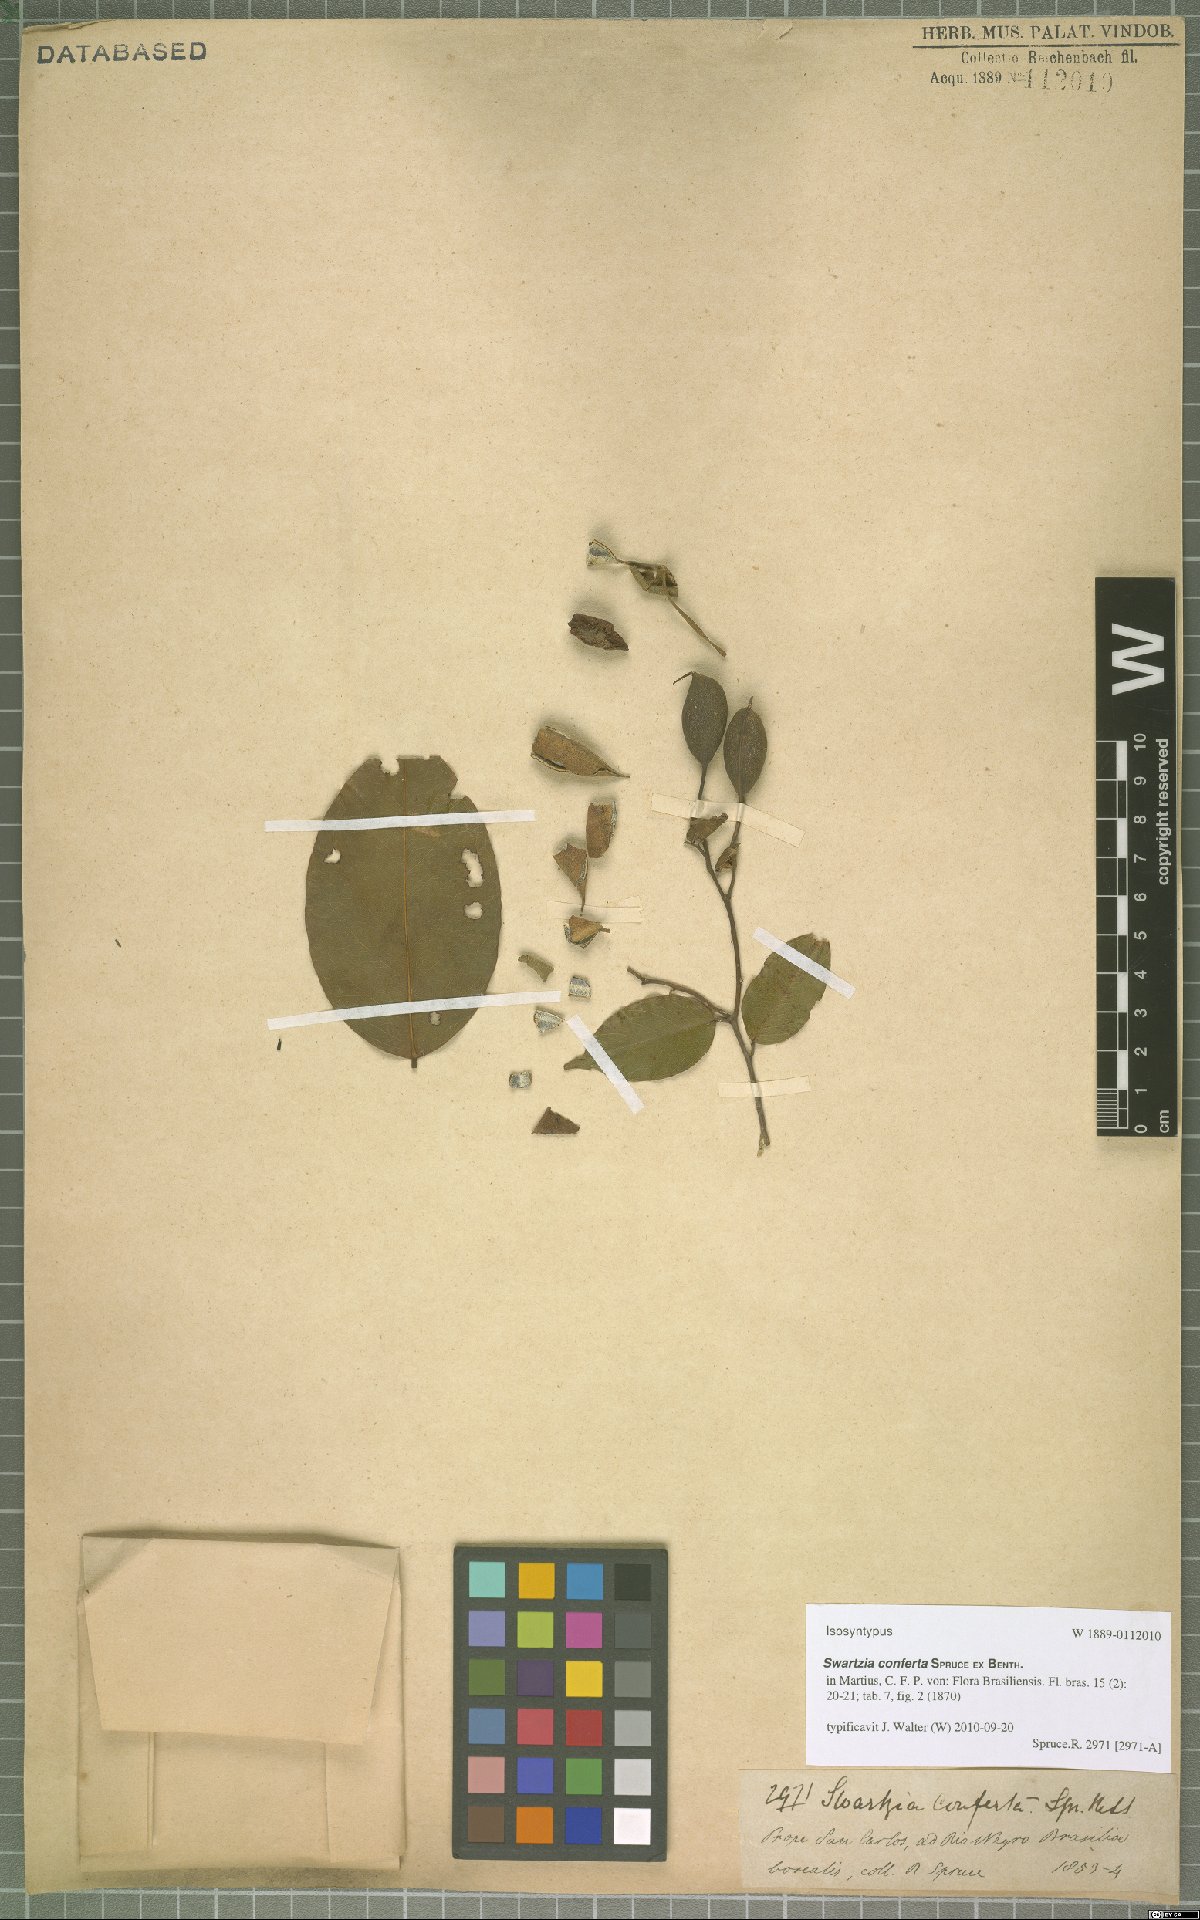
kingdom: Plantae
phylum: Tracheophyta
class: Magnoliopsida
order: Fabales
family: Fabaceae
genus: Swartzia
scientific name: Swartzia conferta
